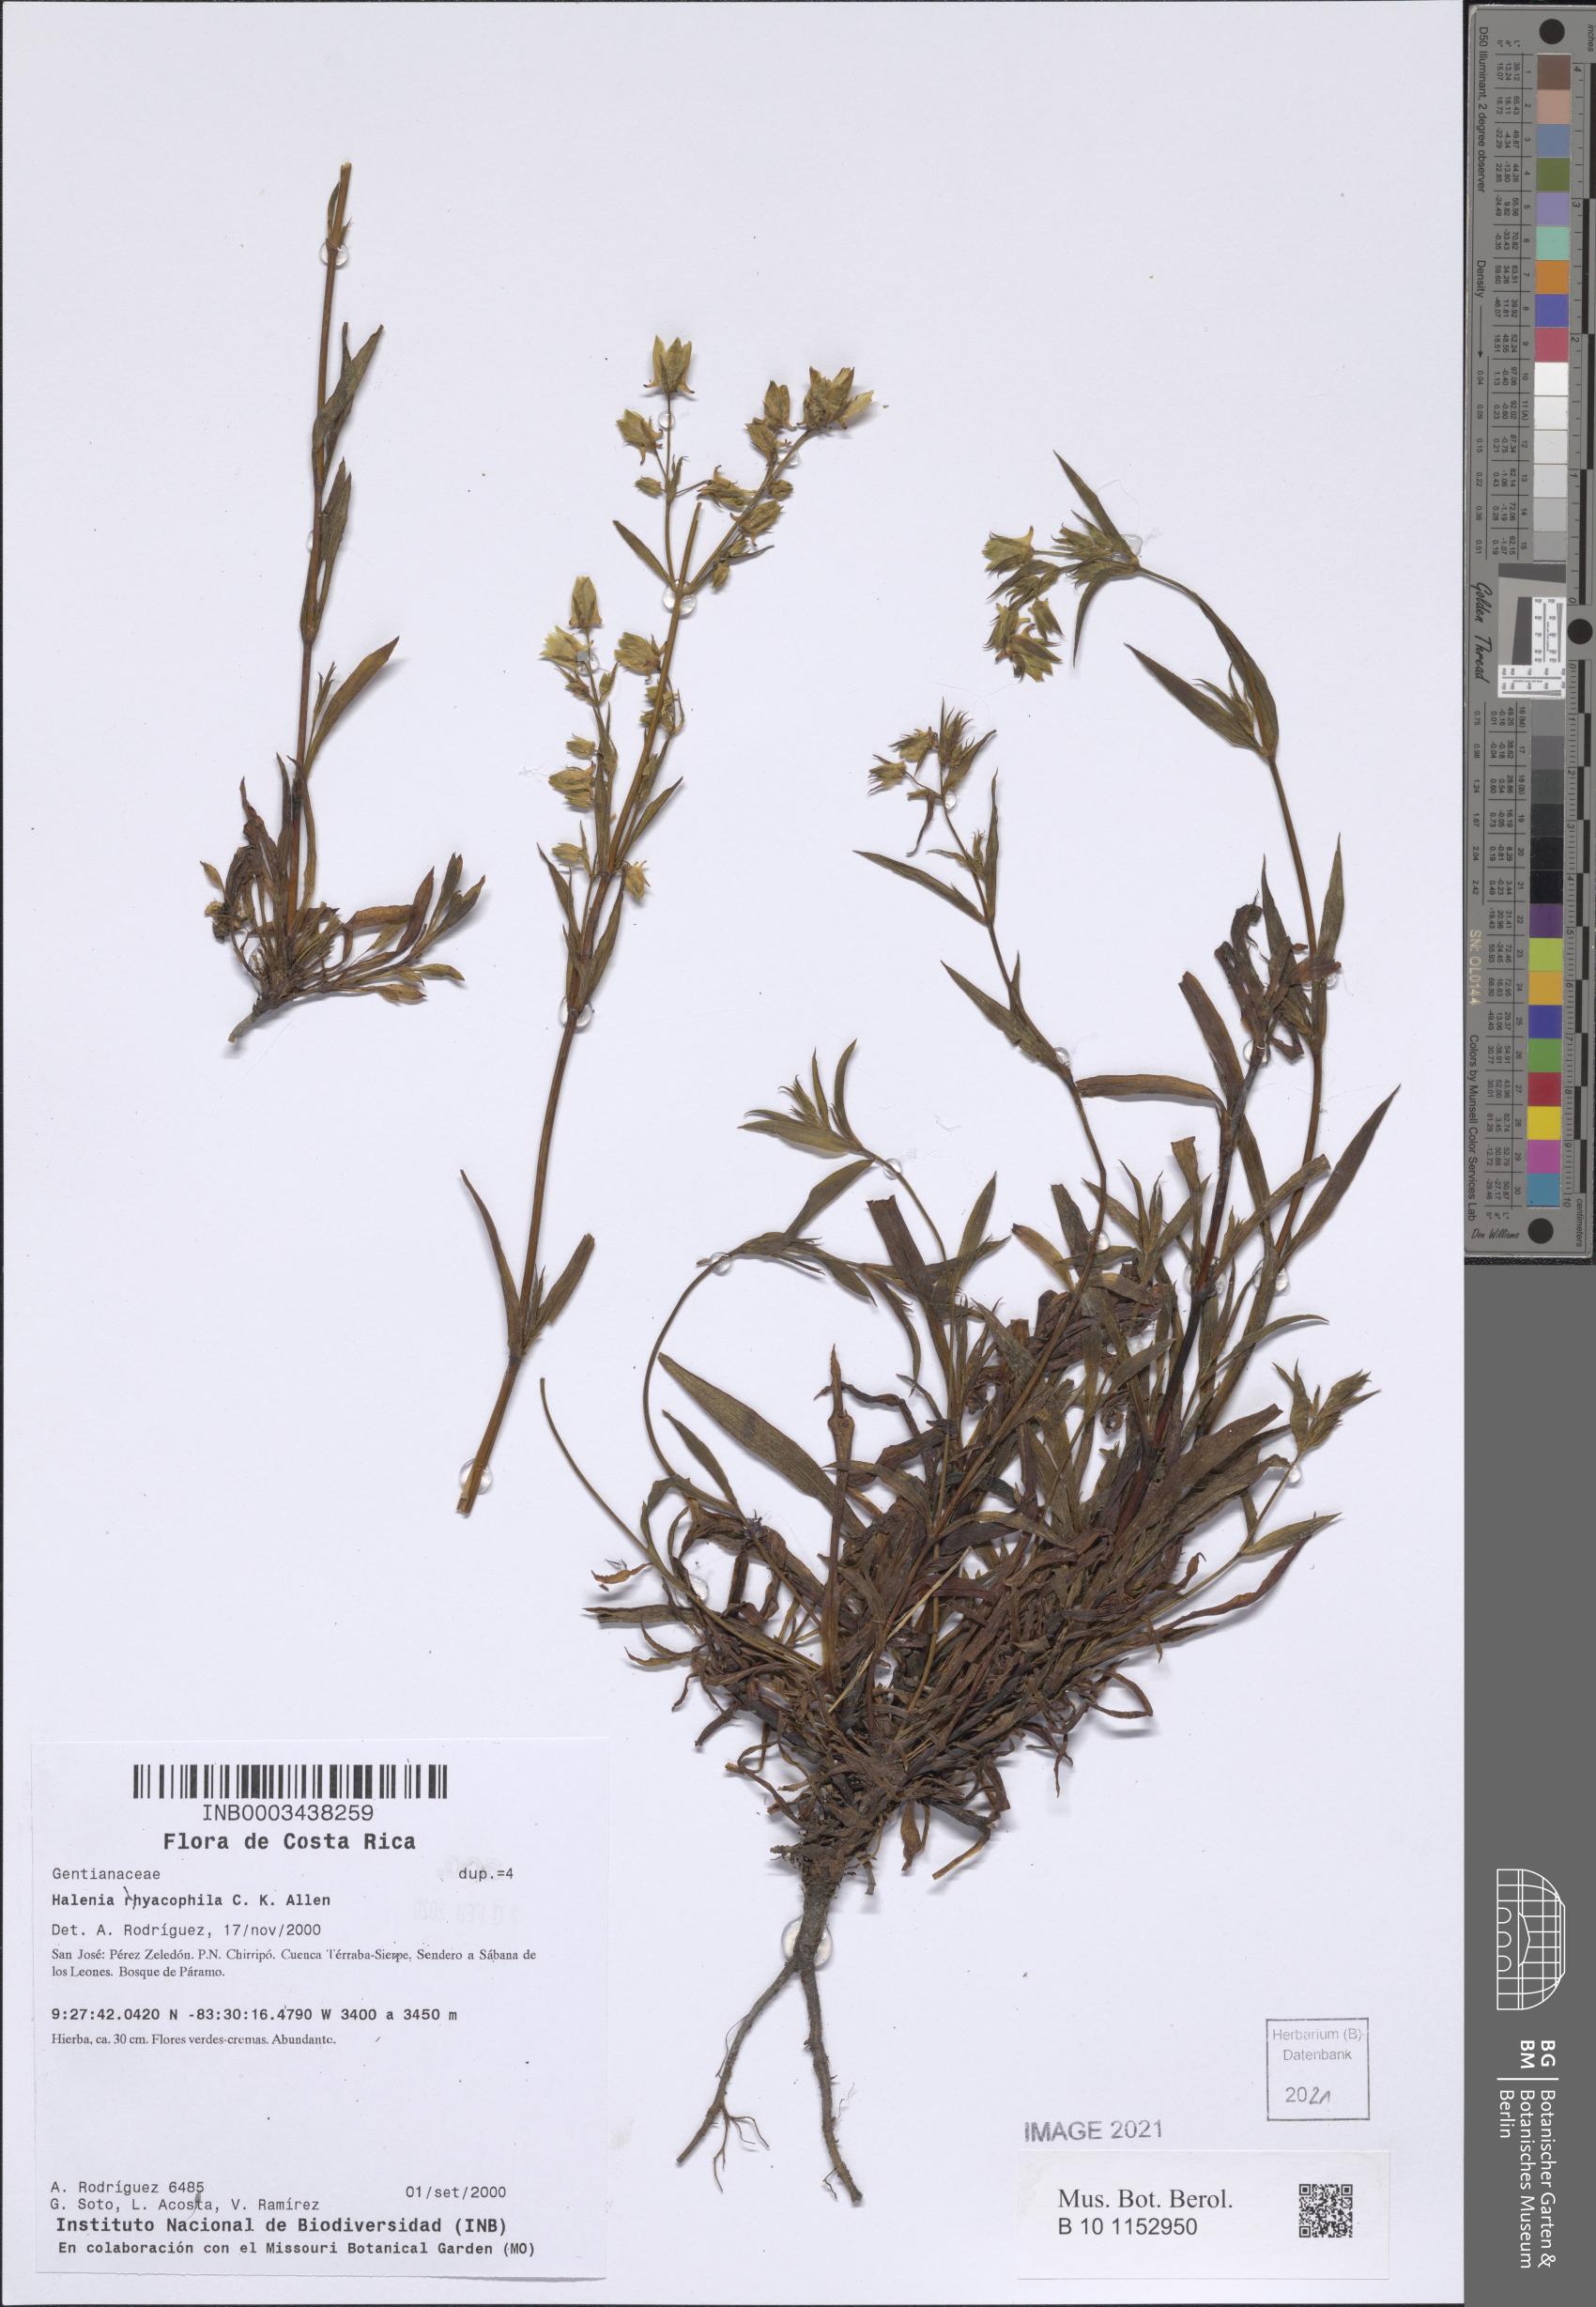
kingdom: Plantae
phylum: Tracheophyta
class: Magnoliopsida
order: Gentianales
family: Gentianaceae
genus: Halenia
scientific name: Halenia rhyacophila
